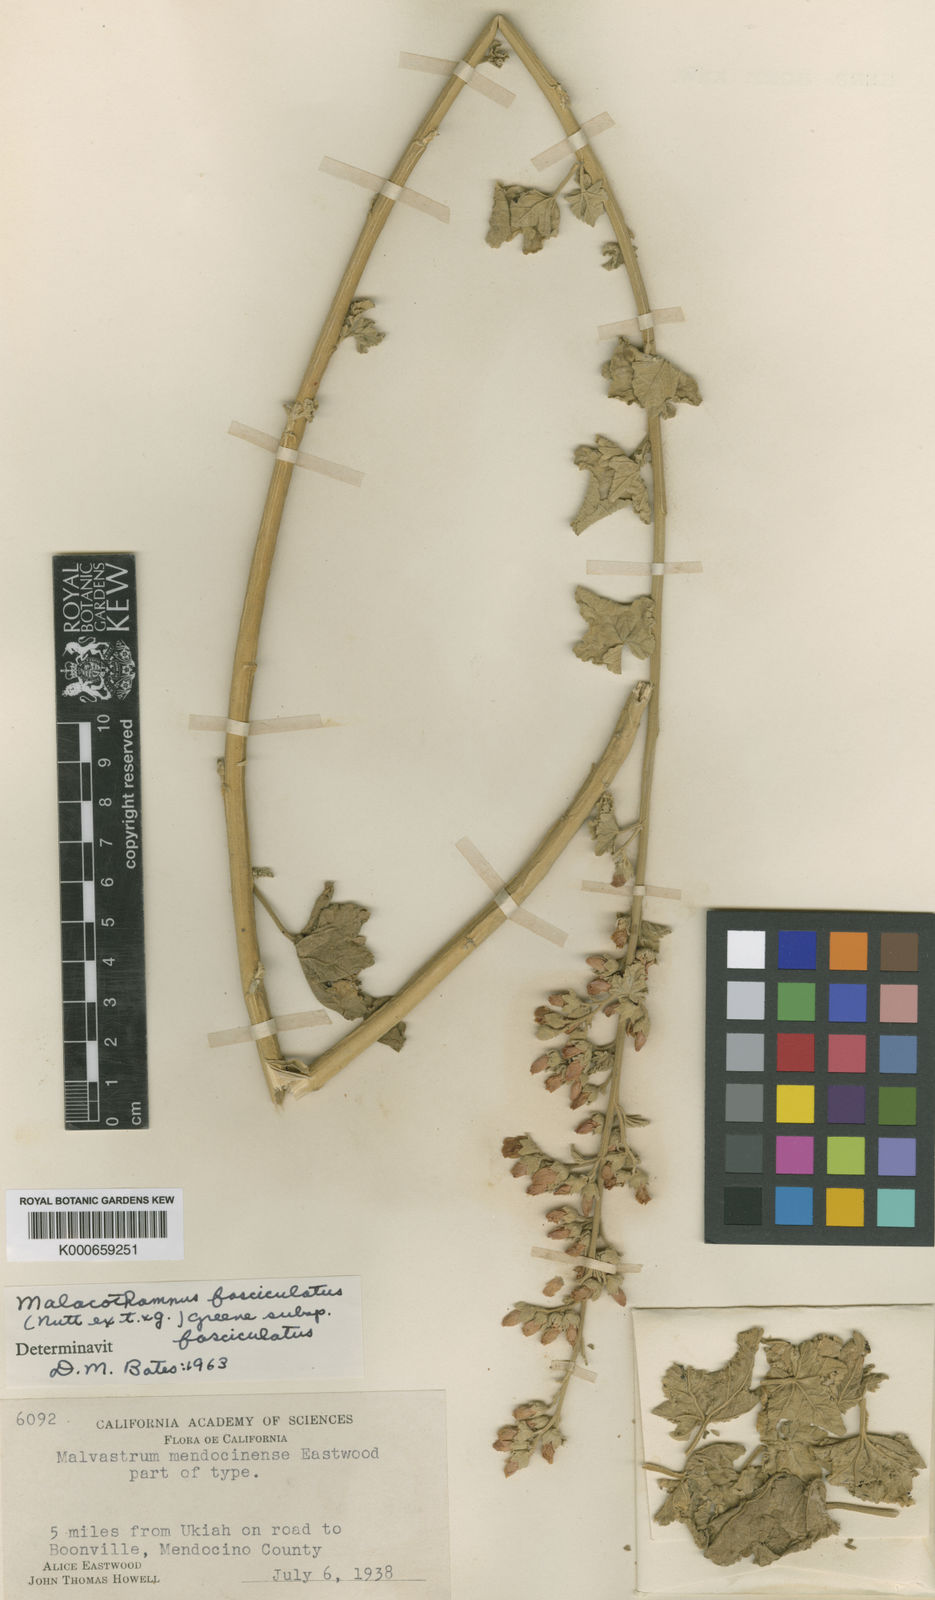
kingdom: Plantae
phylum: Tracheophyta
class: Magnoliopsida
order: Malvales
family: Malvaceae
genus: Malacothamnus
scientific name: Malacothamnus fasciculatus
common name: Sant cruz island bush-mallow
